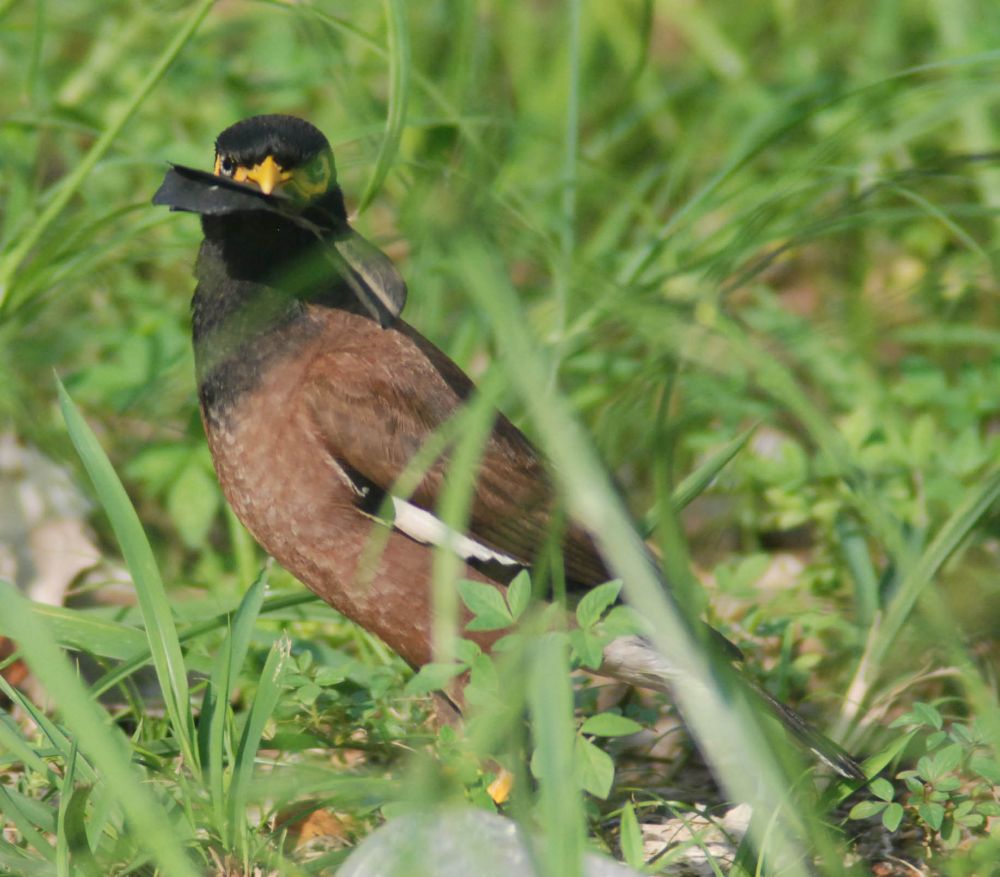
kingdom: Animalia
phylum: Chordata
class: Aves
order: Passeriformes
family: Sturnidae
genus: Acridotheres
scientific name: Acridotheres tristis
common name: Common myna
